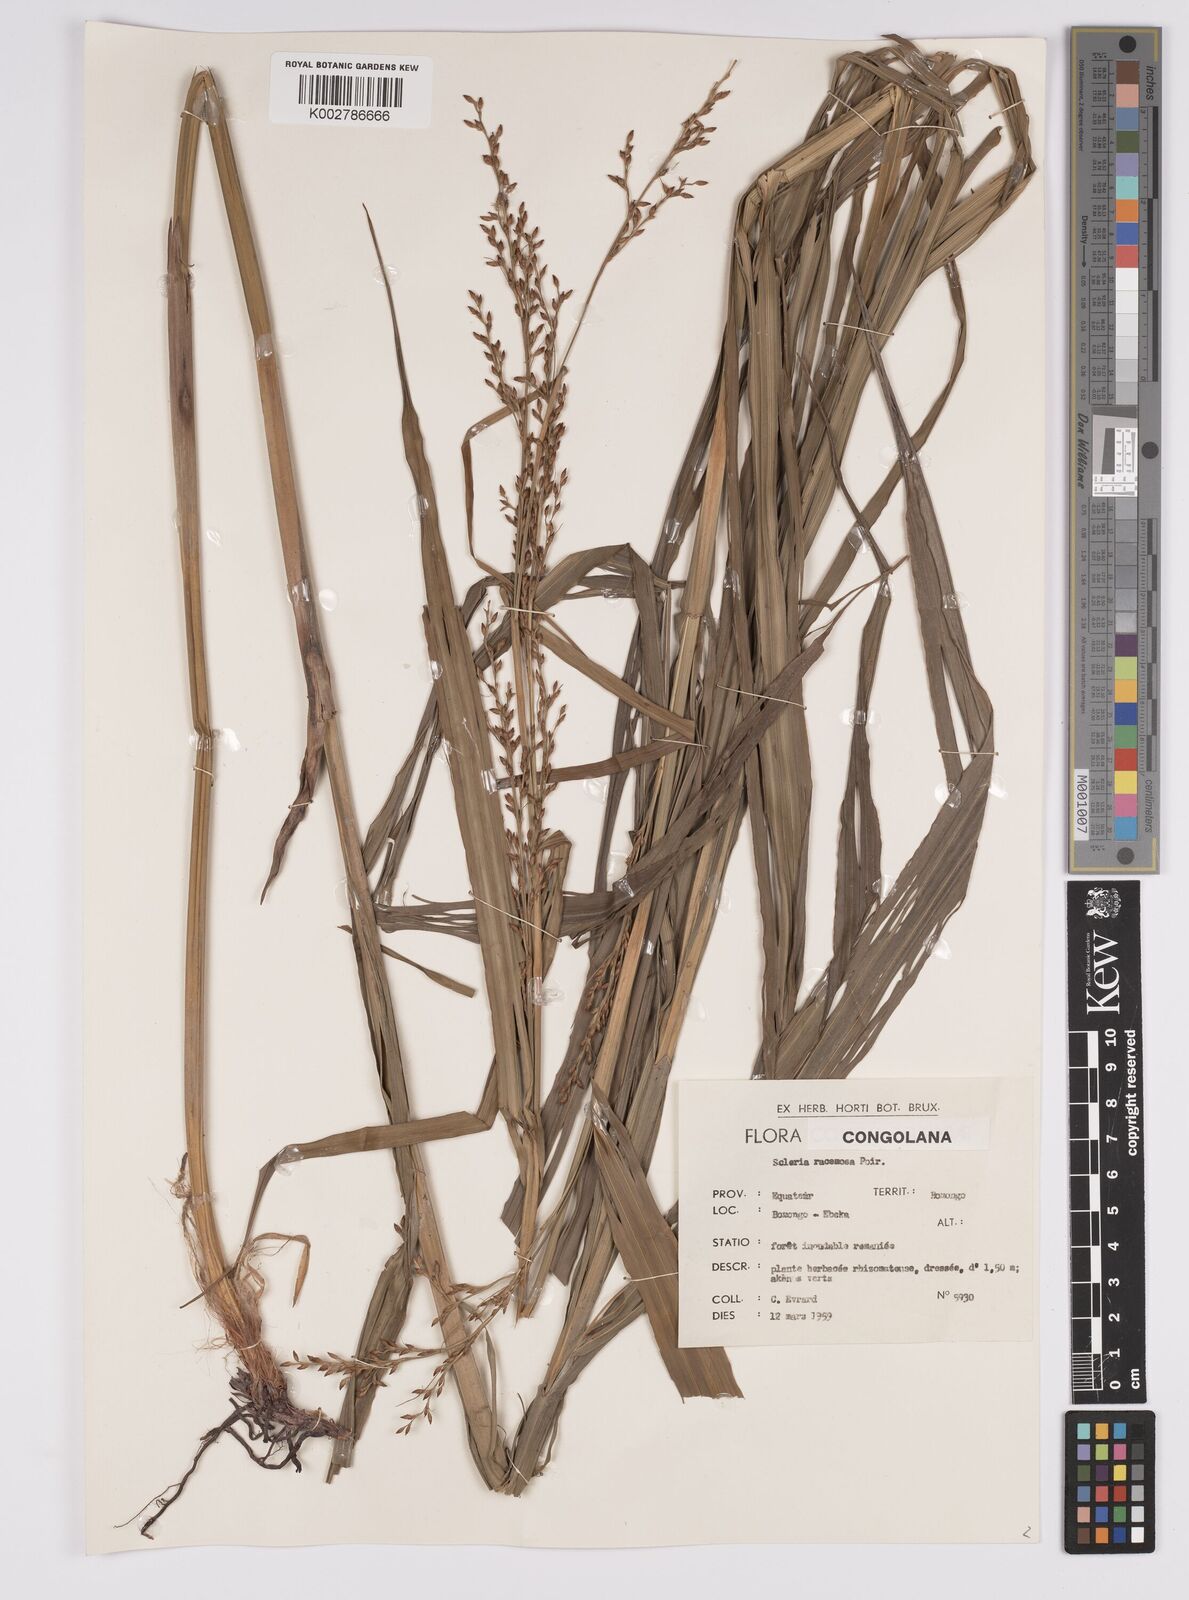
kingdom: Plantae
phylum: Tracheophyta
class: Liliopsida
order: Poales
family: Cyperaceae
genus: Scleria
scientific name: Scleria racemosa
